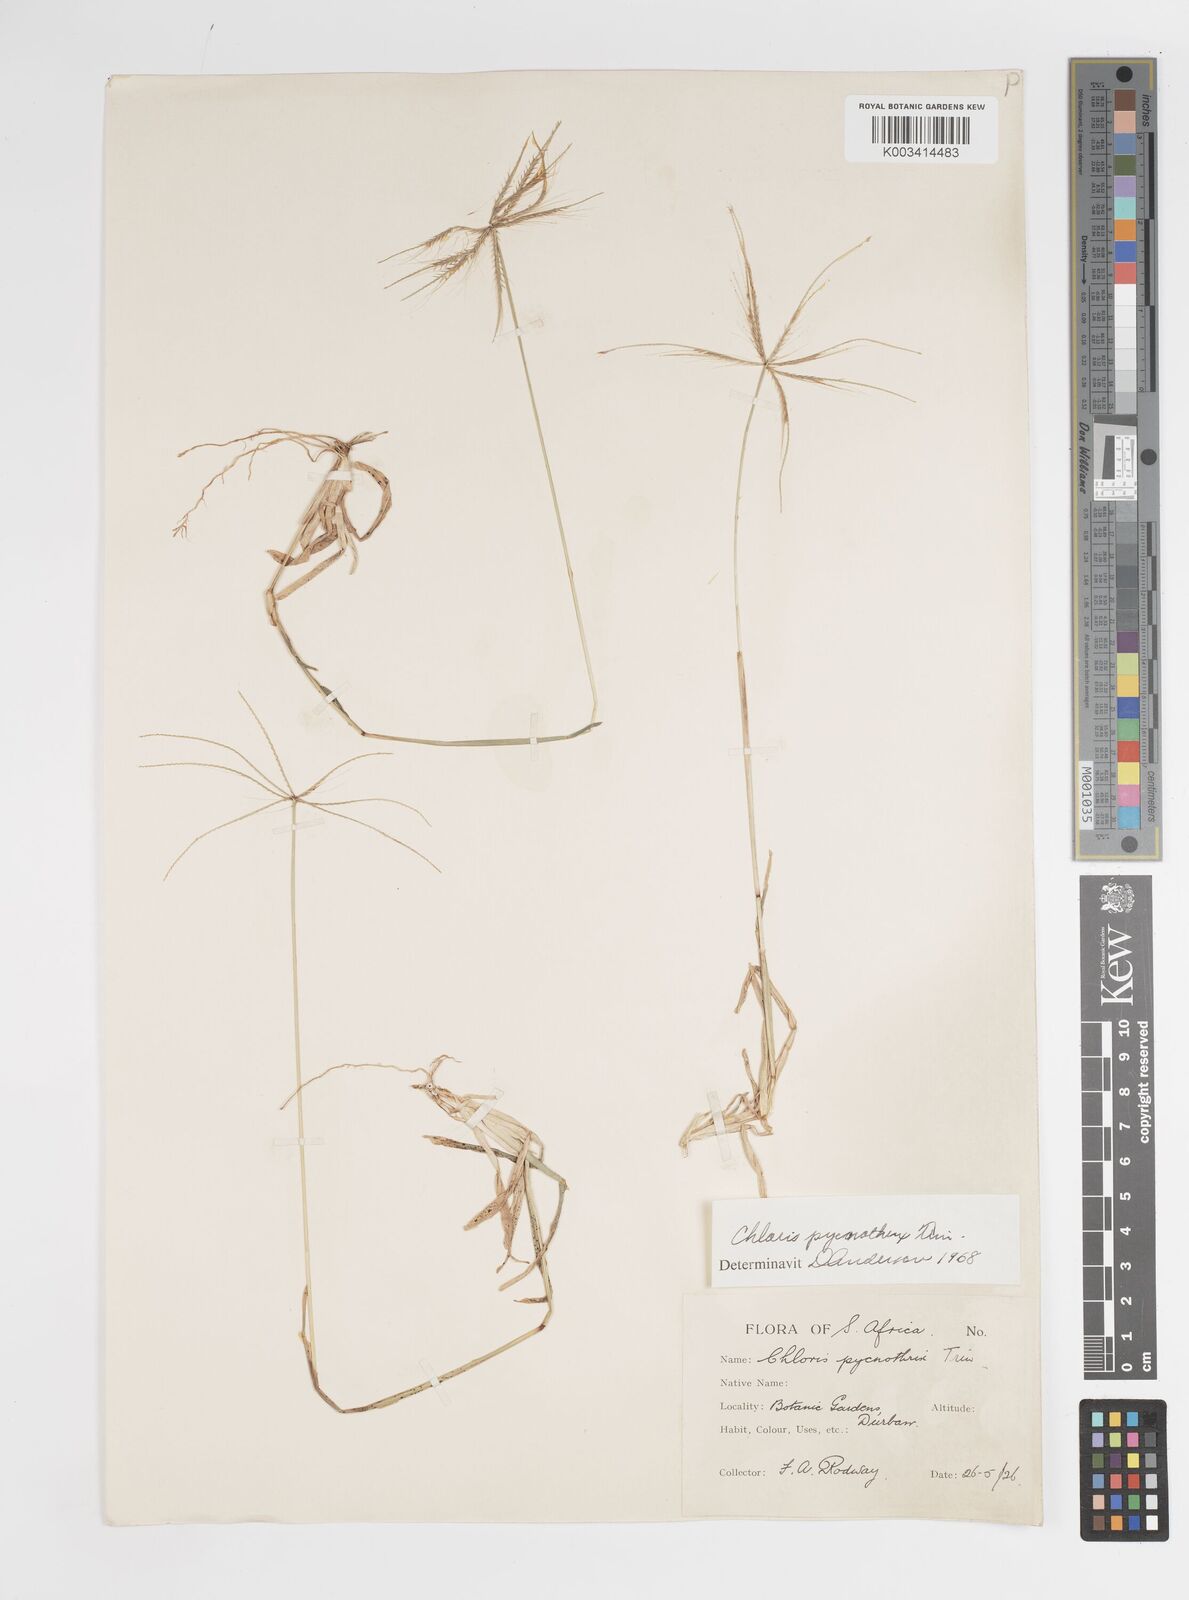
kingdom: Plantae
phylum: Tracheophyta
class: Liliopsida
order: Poales
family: Poaceae
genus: Chloris
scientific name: Chloris pycnothrix
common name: Spiderweb chloris
